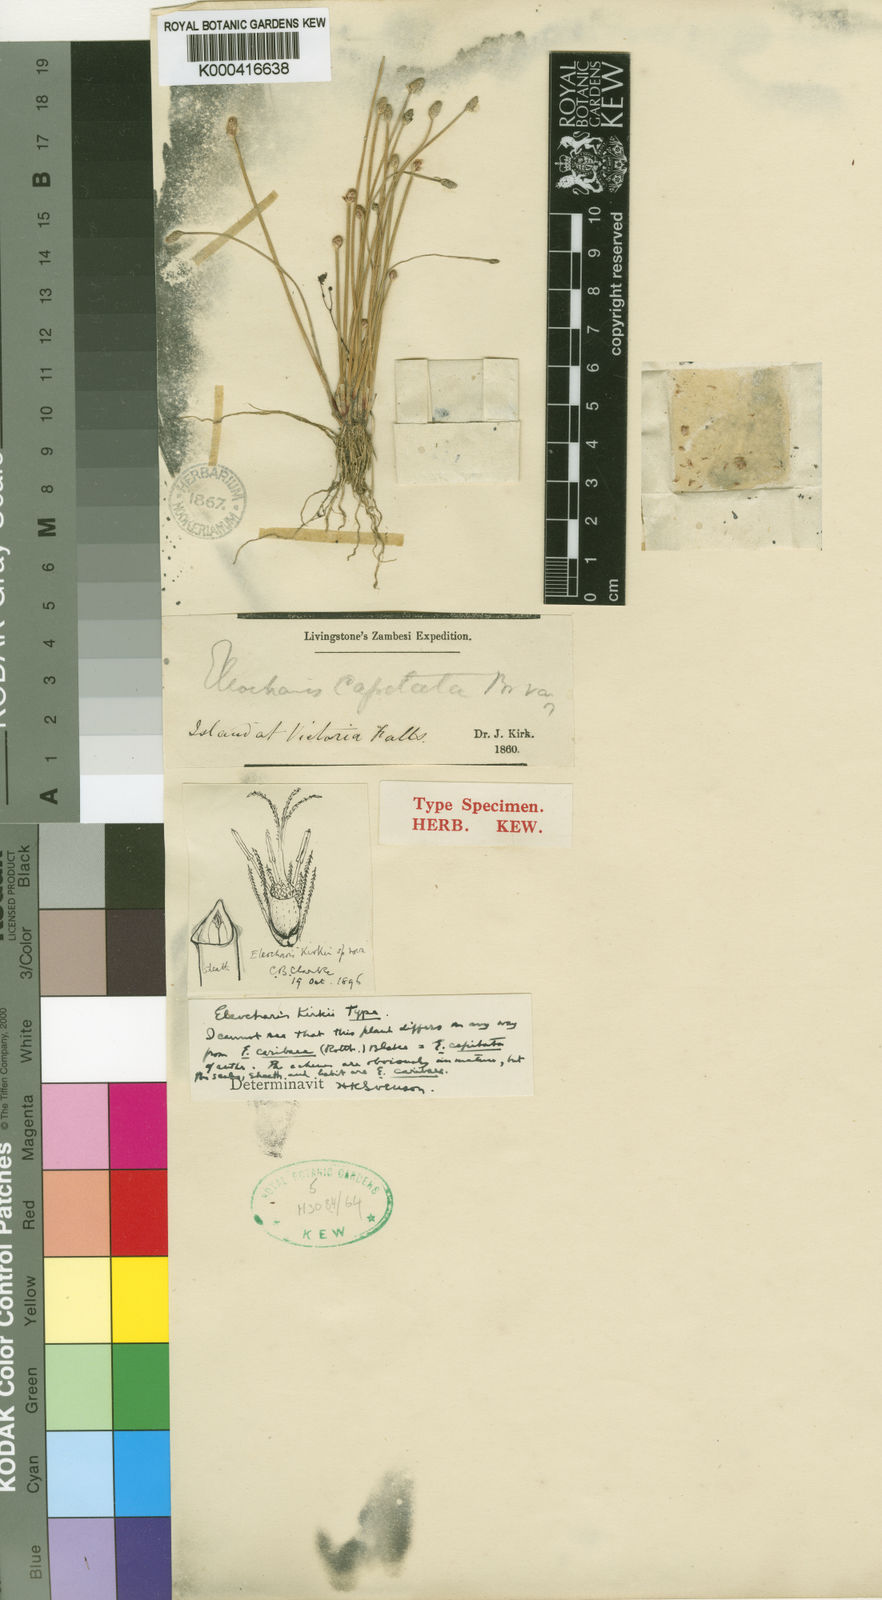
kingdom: Plantae
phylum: Tracheophyta
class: Liliopsida
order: Poales
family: Cyperaceae
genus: Eleocharis
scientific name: Eleocharis geniculata
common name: Canada spikesedge
